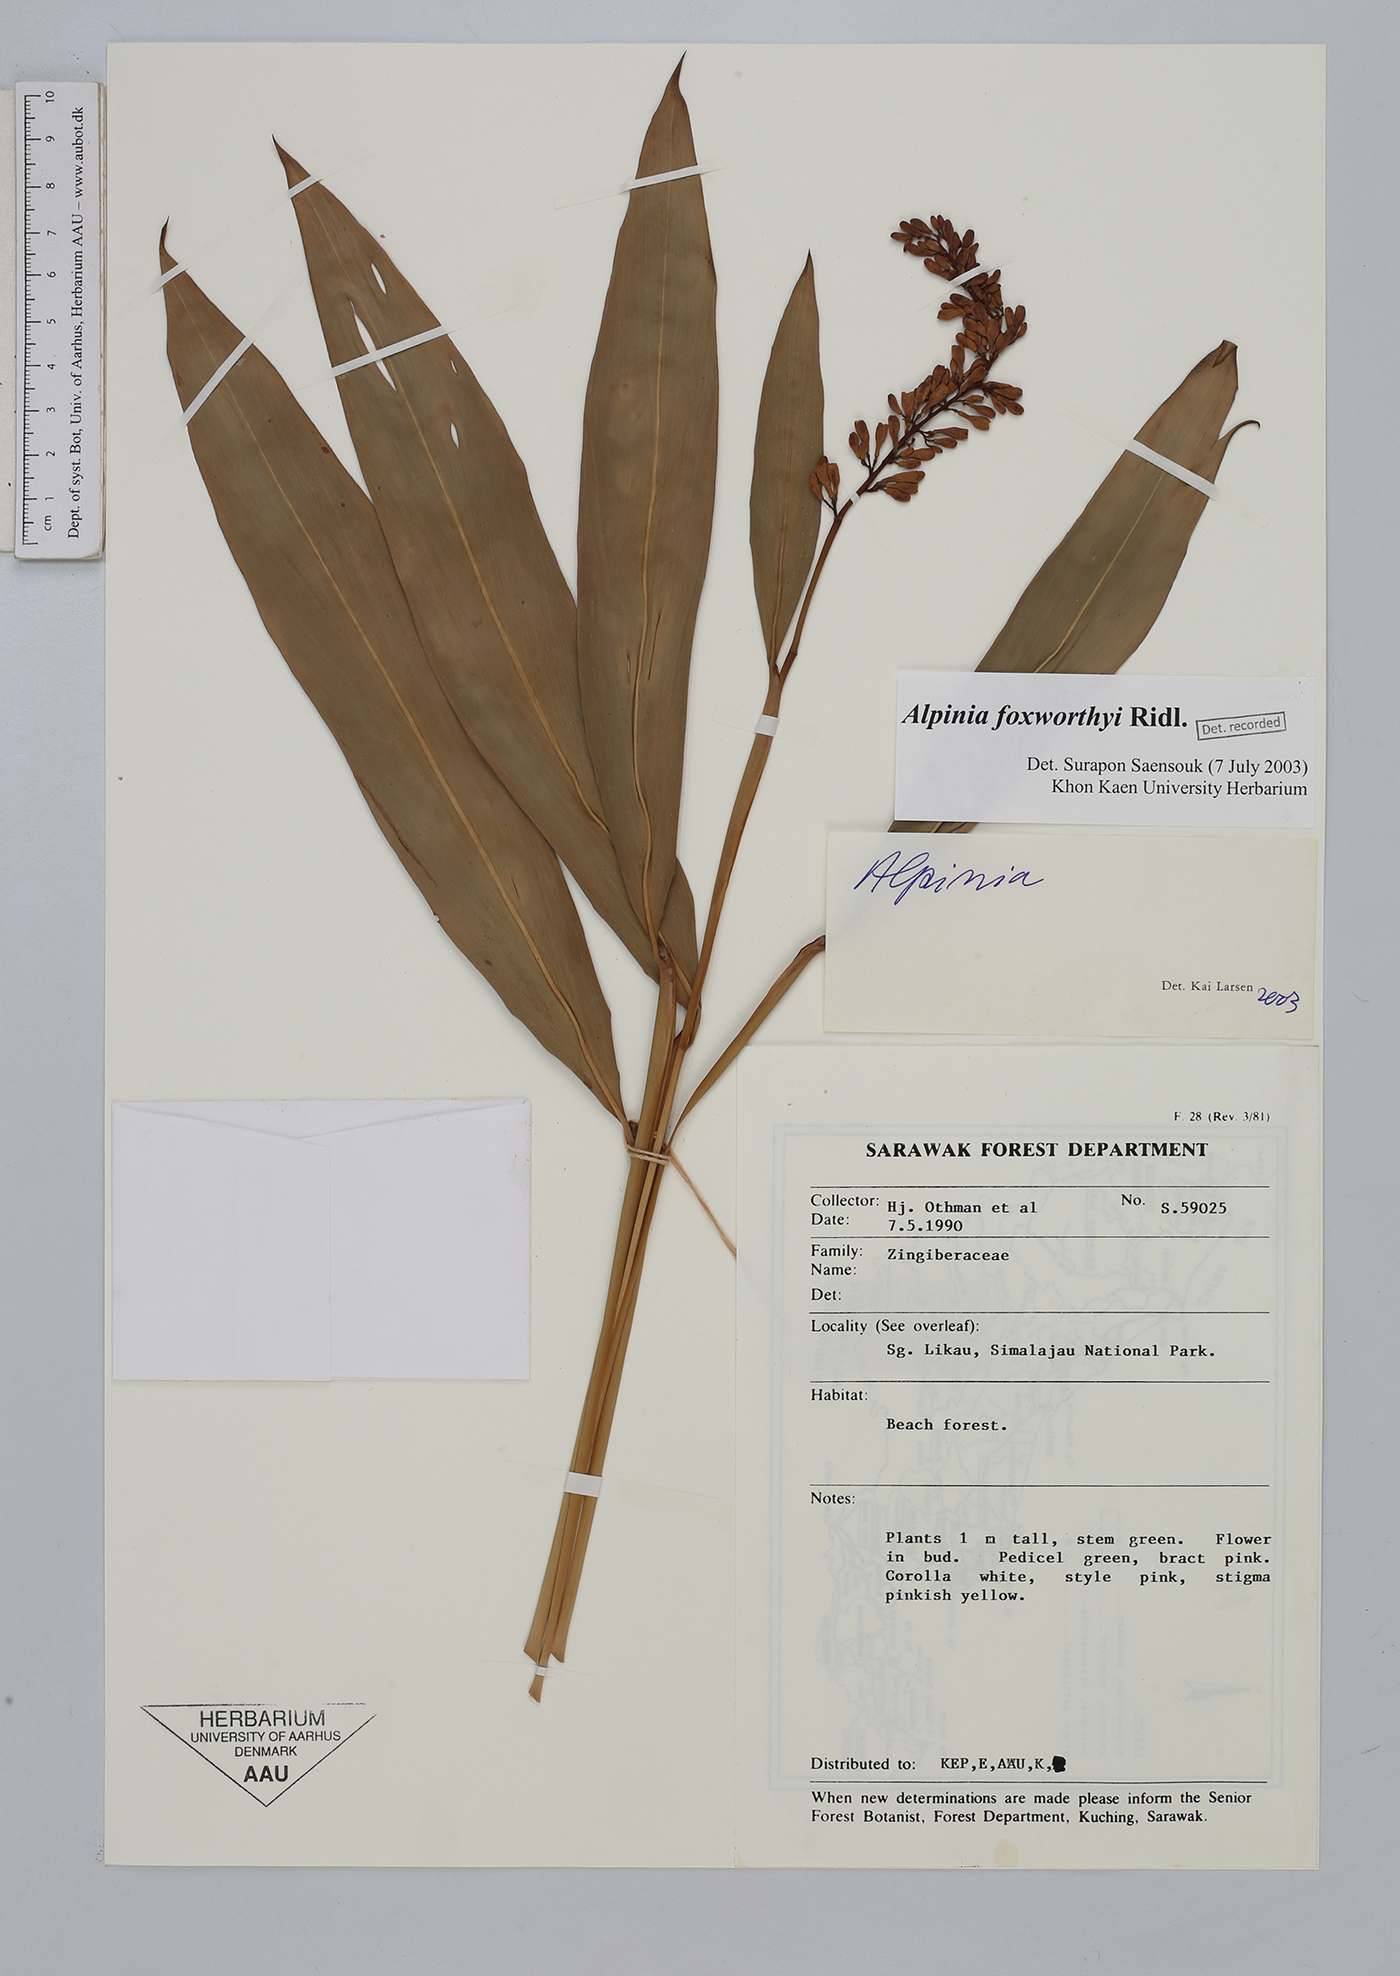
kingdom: Plantae
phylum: Tracheophyta
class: Liliopsida
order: Zingiberales
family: Zingiberaceae
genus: Alpinia
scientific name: Alpinia foxworthyi
